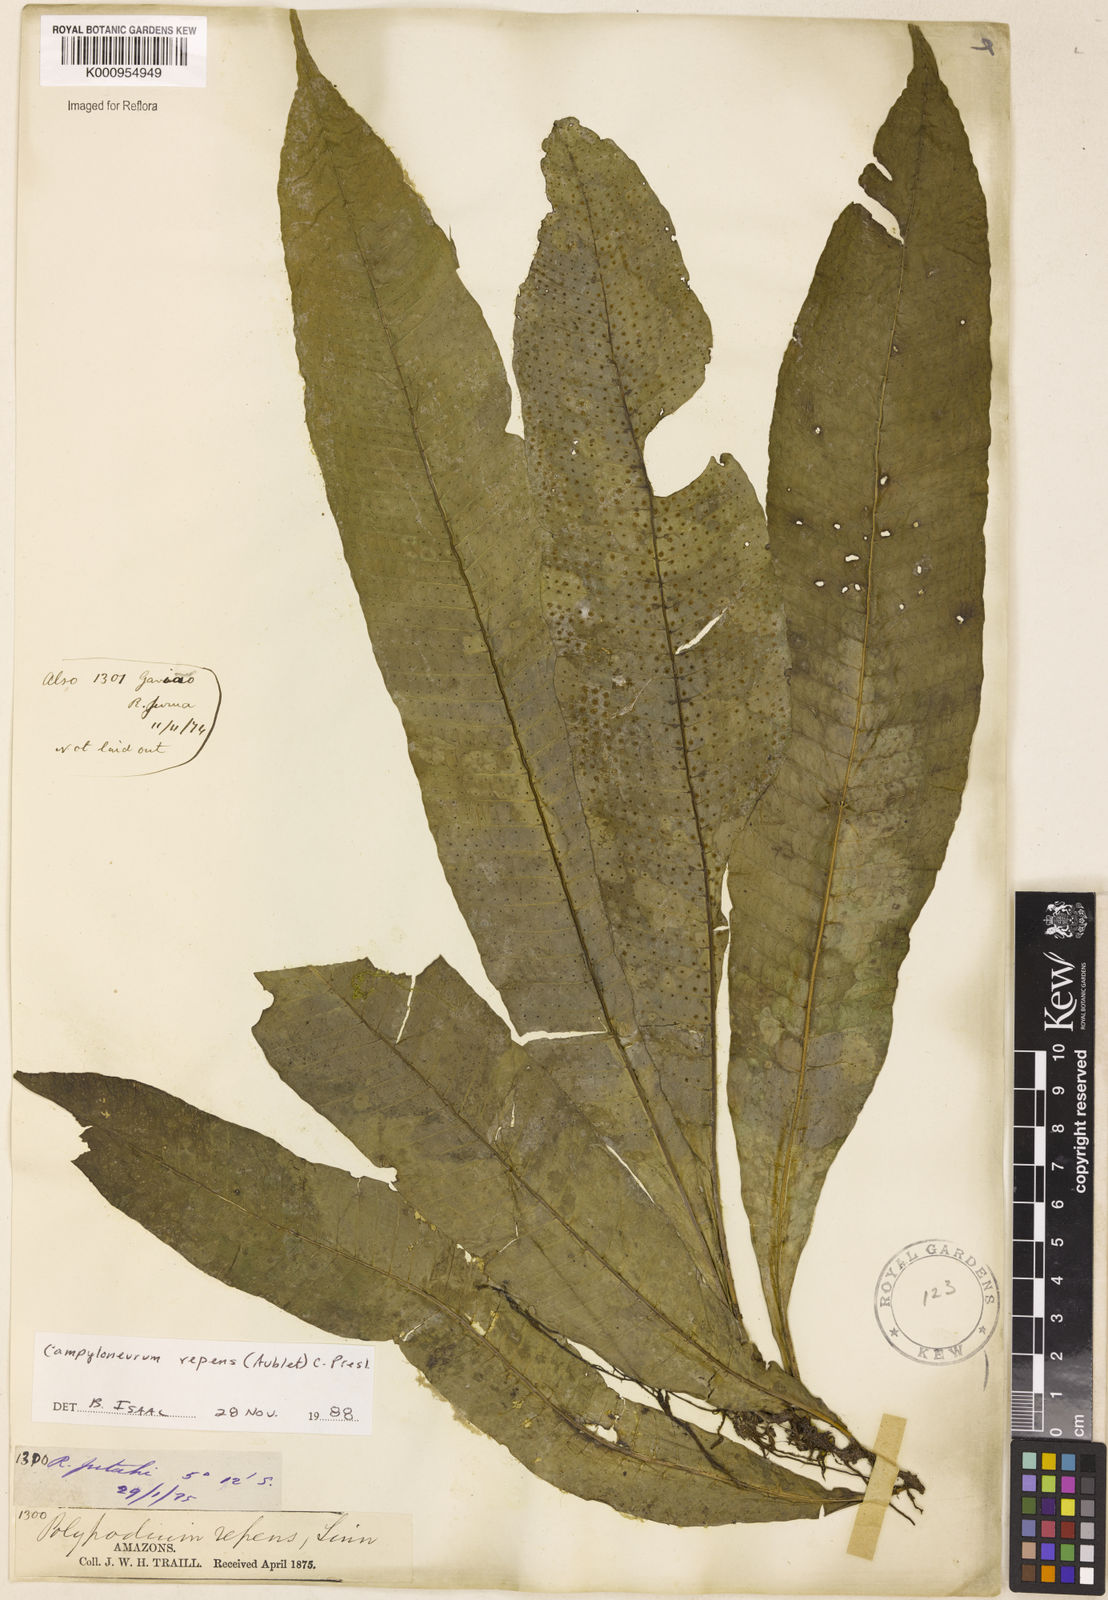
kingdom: Plantae
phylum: Tracheophyta
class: Polypodiopsida
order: Polypodiales
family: Polypodiaceae
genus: Campyloneurum
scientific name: Campyloneurum repens
